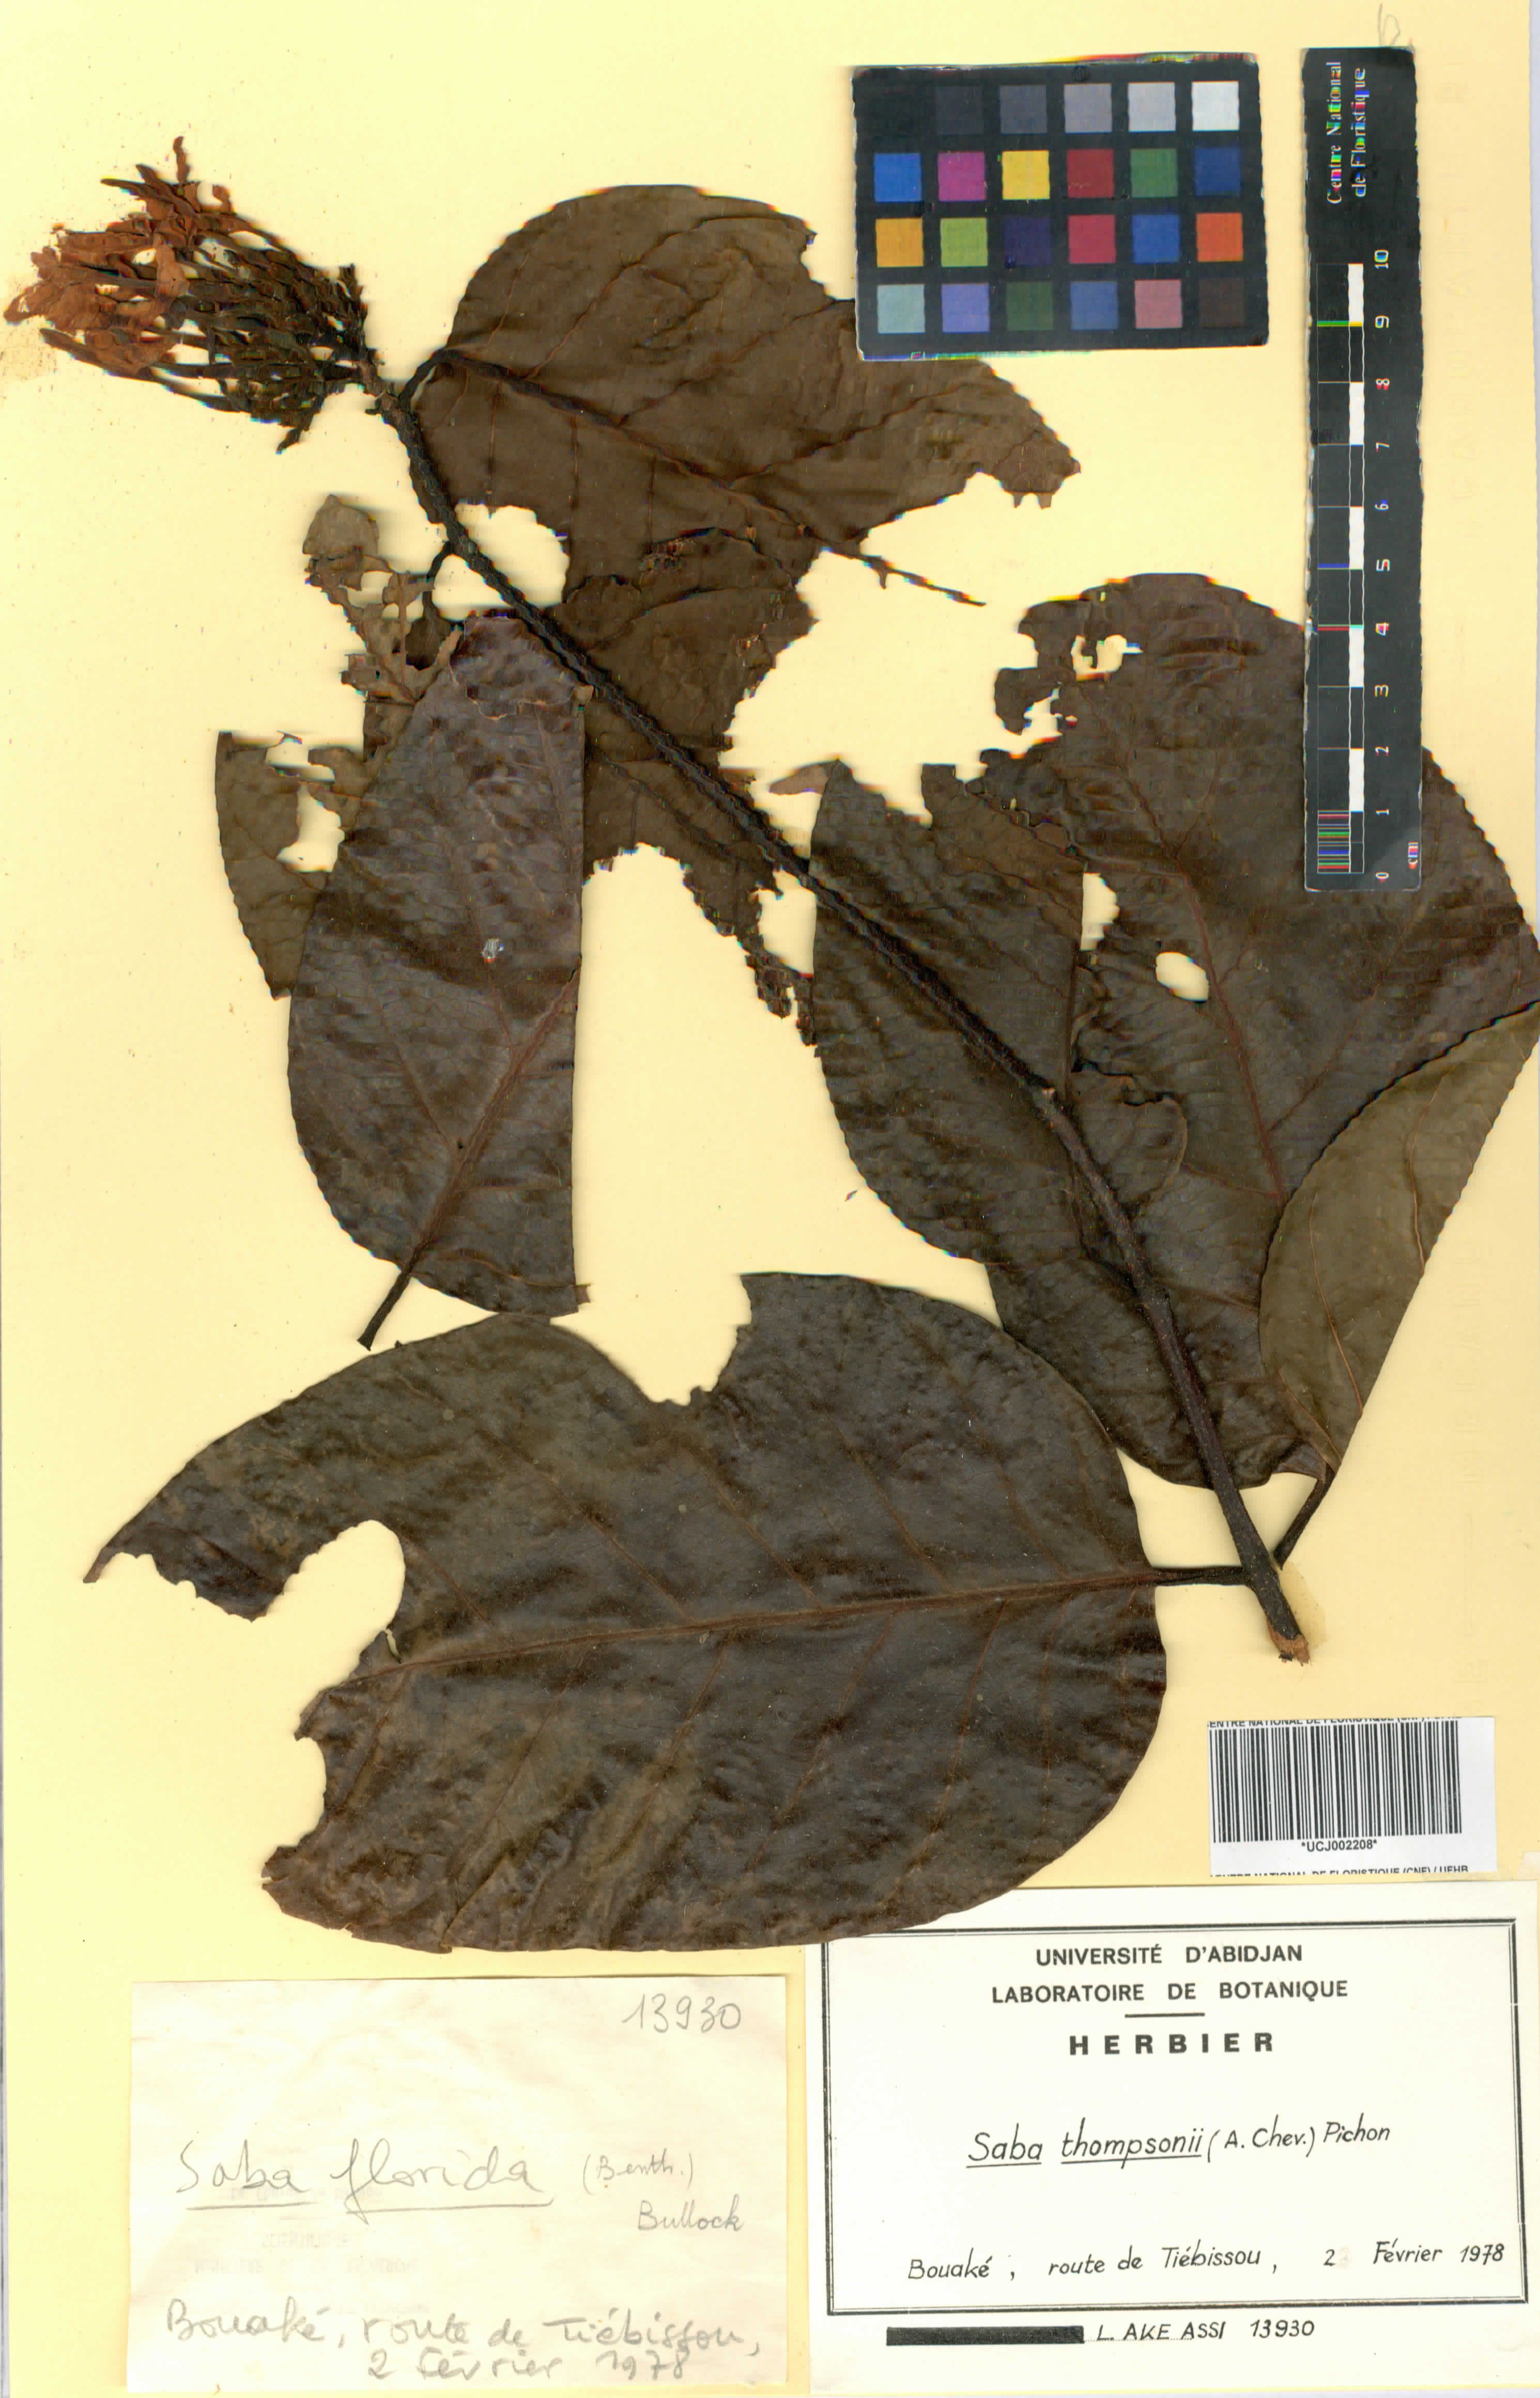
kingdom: Plantae
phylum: Tracheophyta
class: Magnoliopsida
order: Gentianales
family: Apocynaceae
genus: Saba
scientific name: Saba thompsonii
